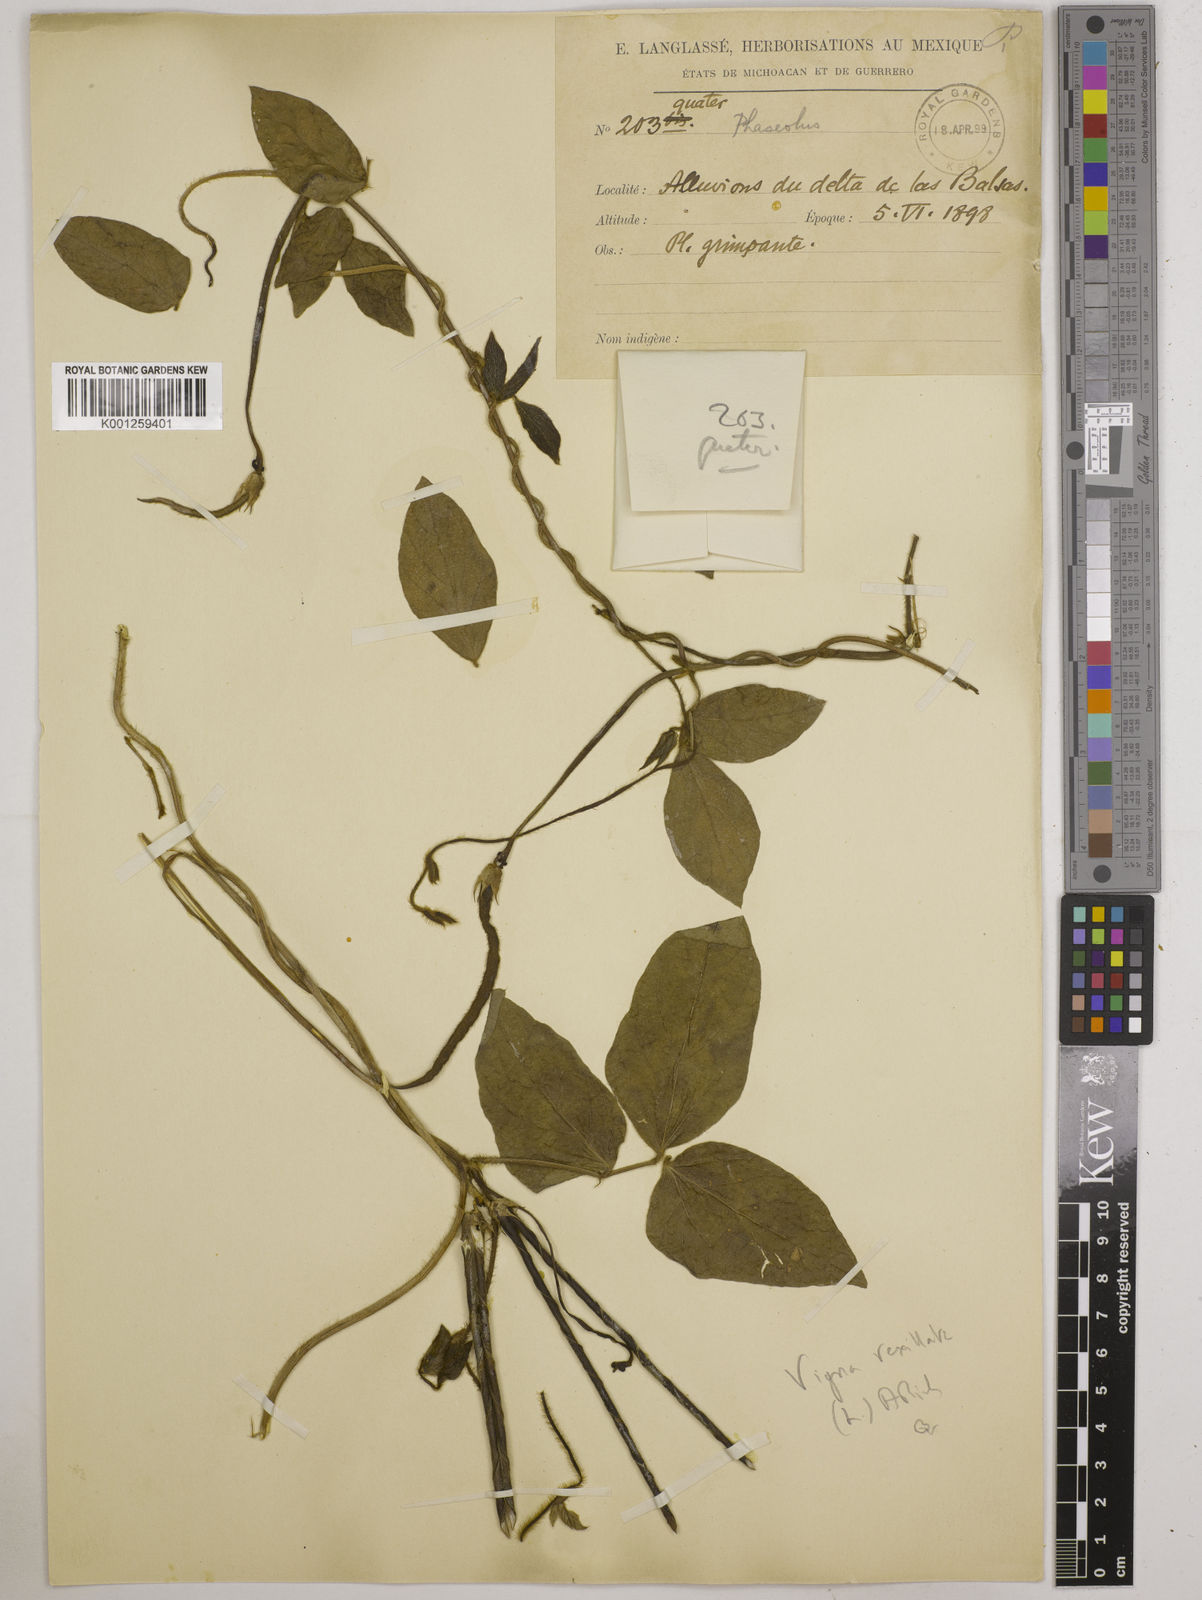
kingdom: Plantae
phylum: Tracheophyta
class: Magnoliopsida
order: Fabales
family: Fabaceae
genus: Vigna
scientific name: Vigna vexillata
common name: Zombi pea
